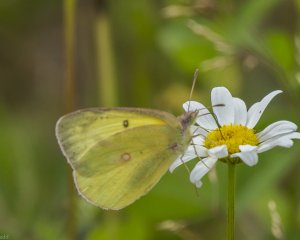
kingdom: Animalia
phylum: Arthropoda
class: Insecta
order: Lepidoptera
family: Pieridae
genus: Colias
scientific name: Colias interior
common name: Pink-edged Sulphur
